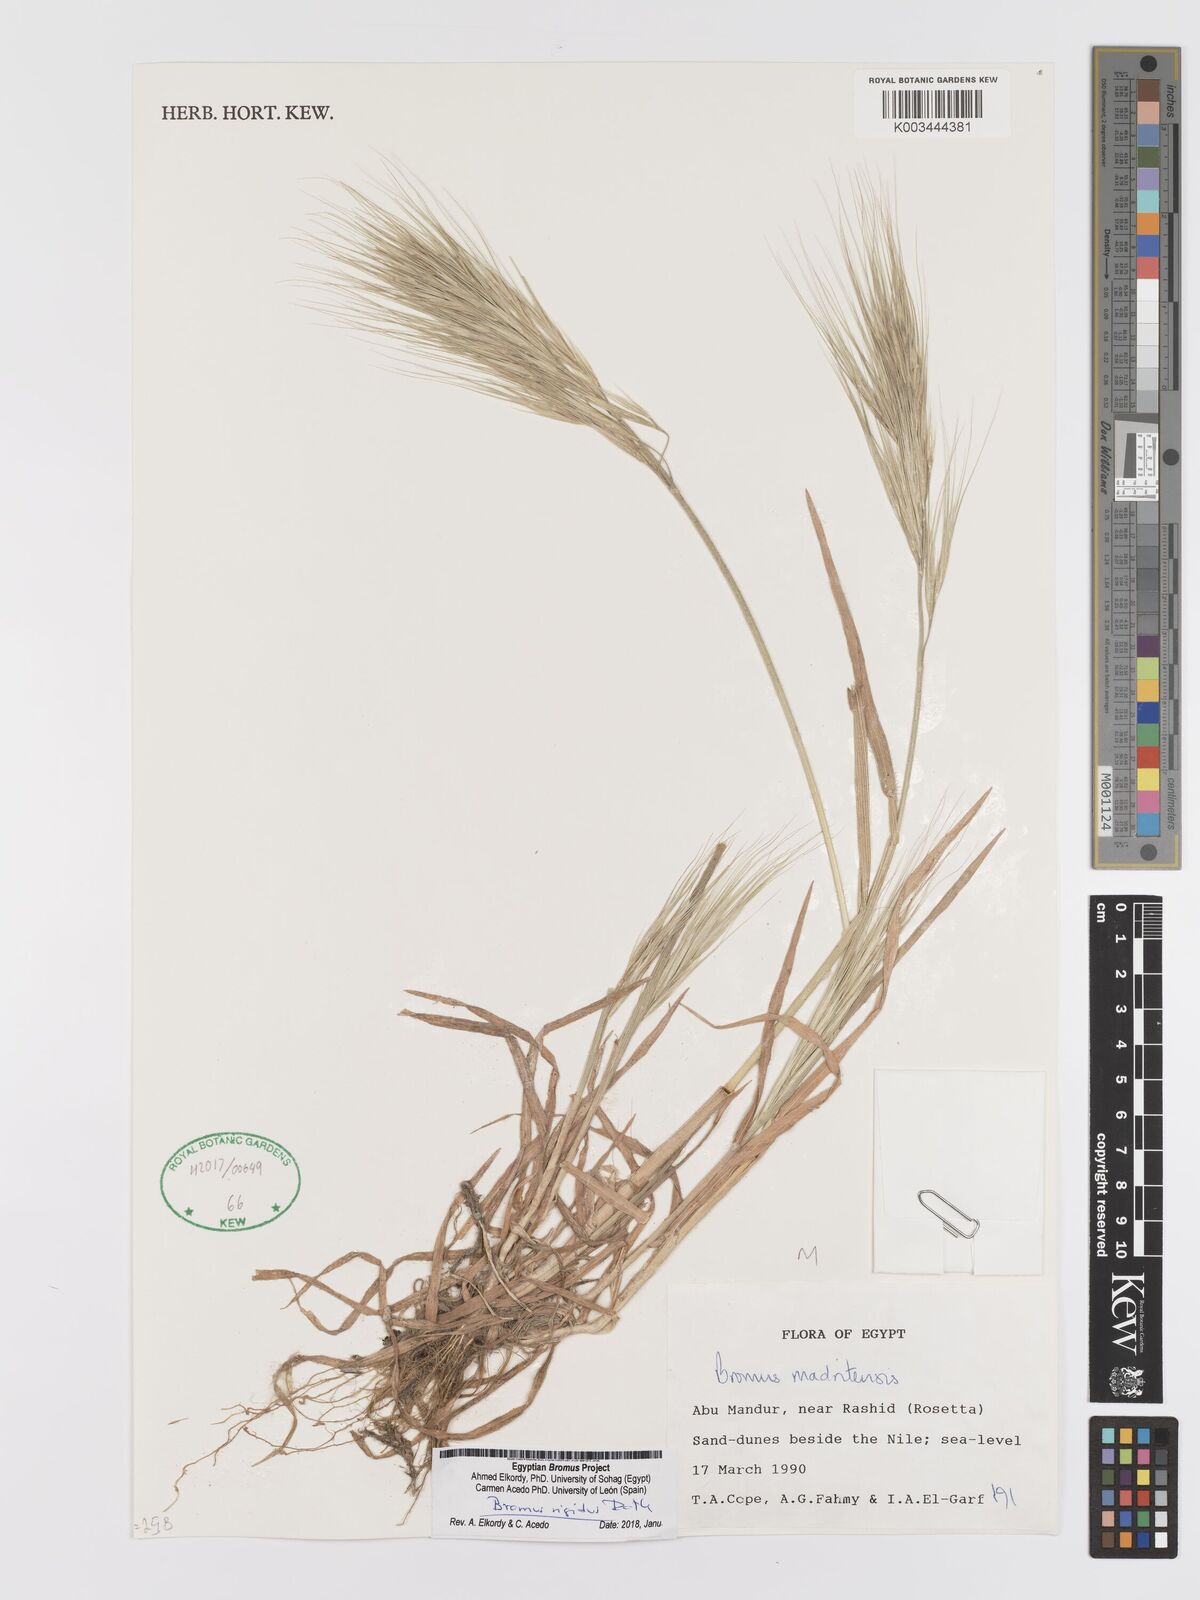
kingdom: Plantae
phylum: Tracheophyta
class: Liliopsida
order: Poales
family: Poaceae
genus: Bromus
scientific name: Bromus
